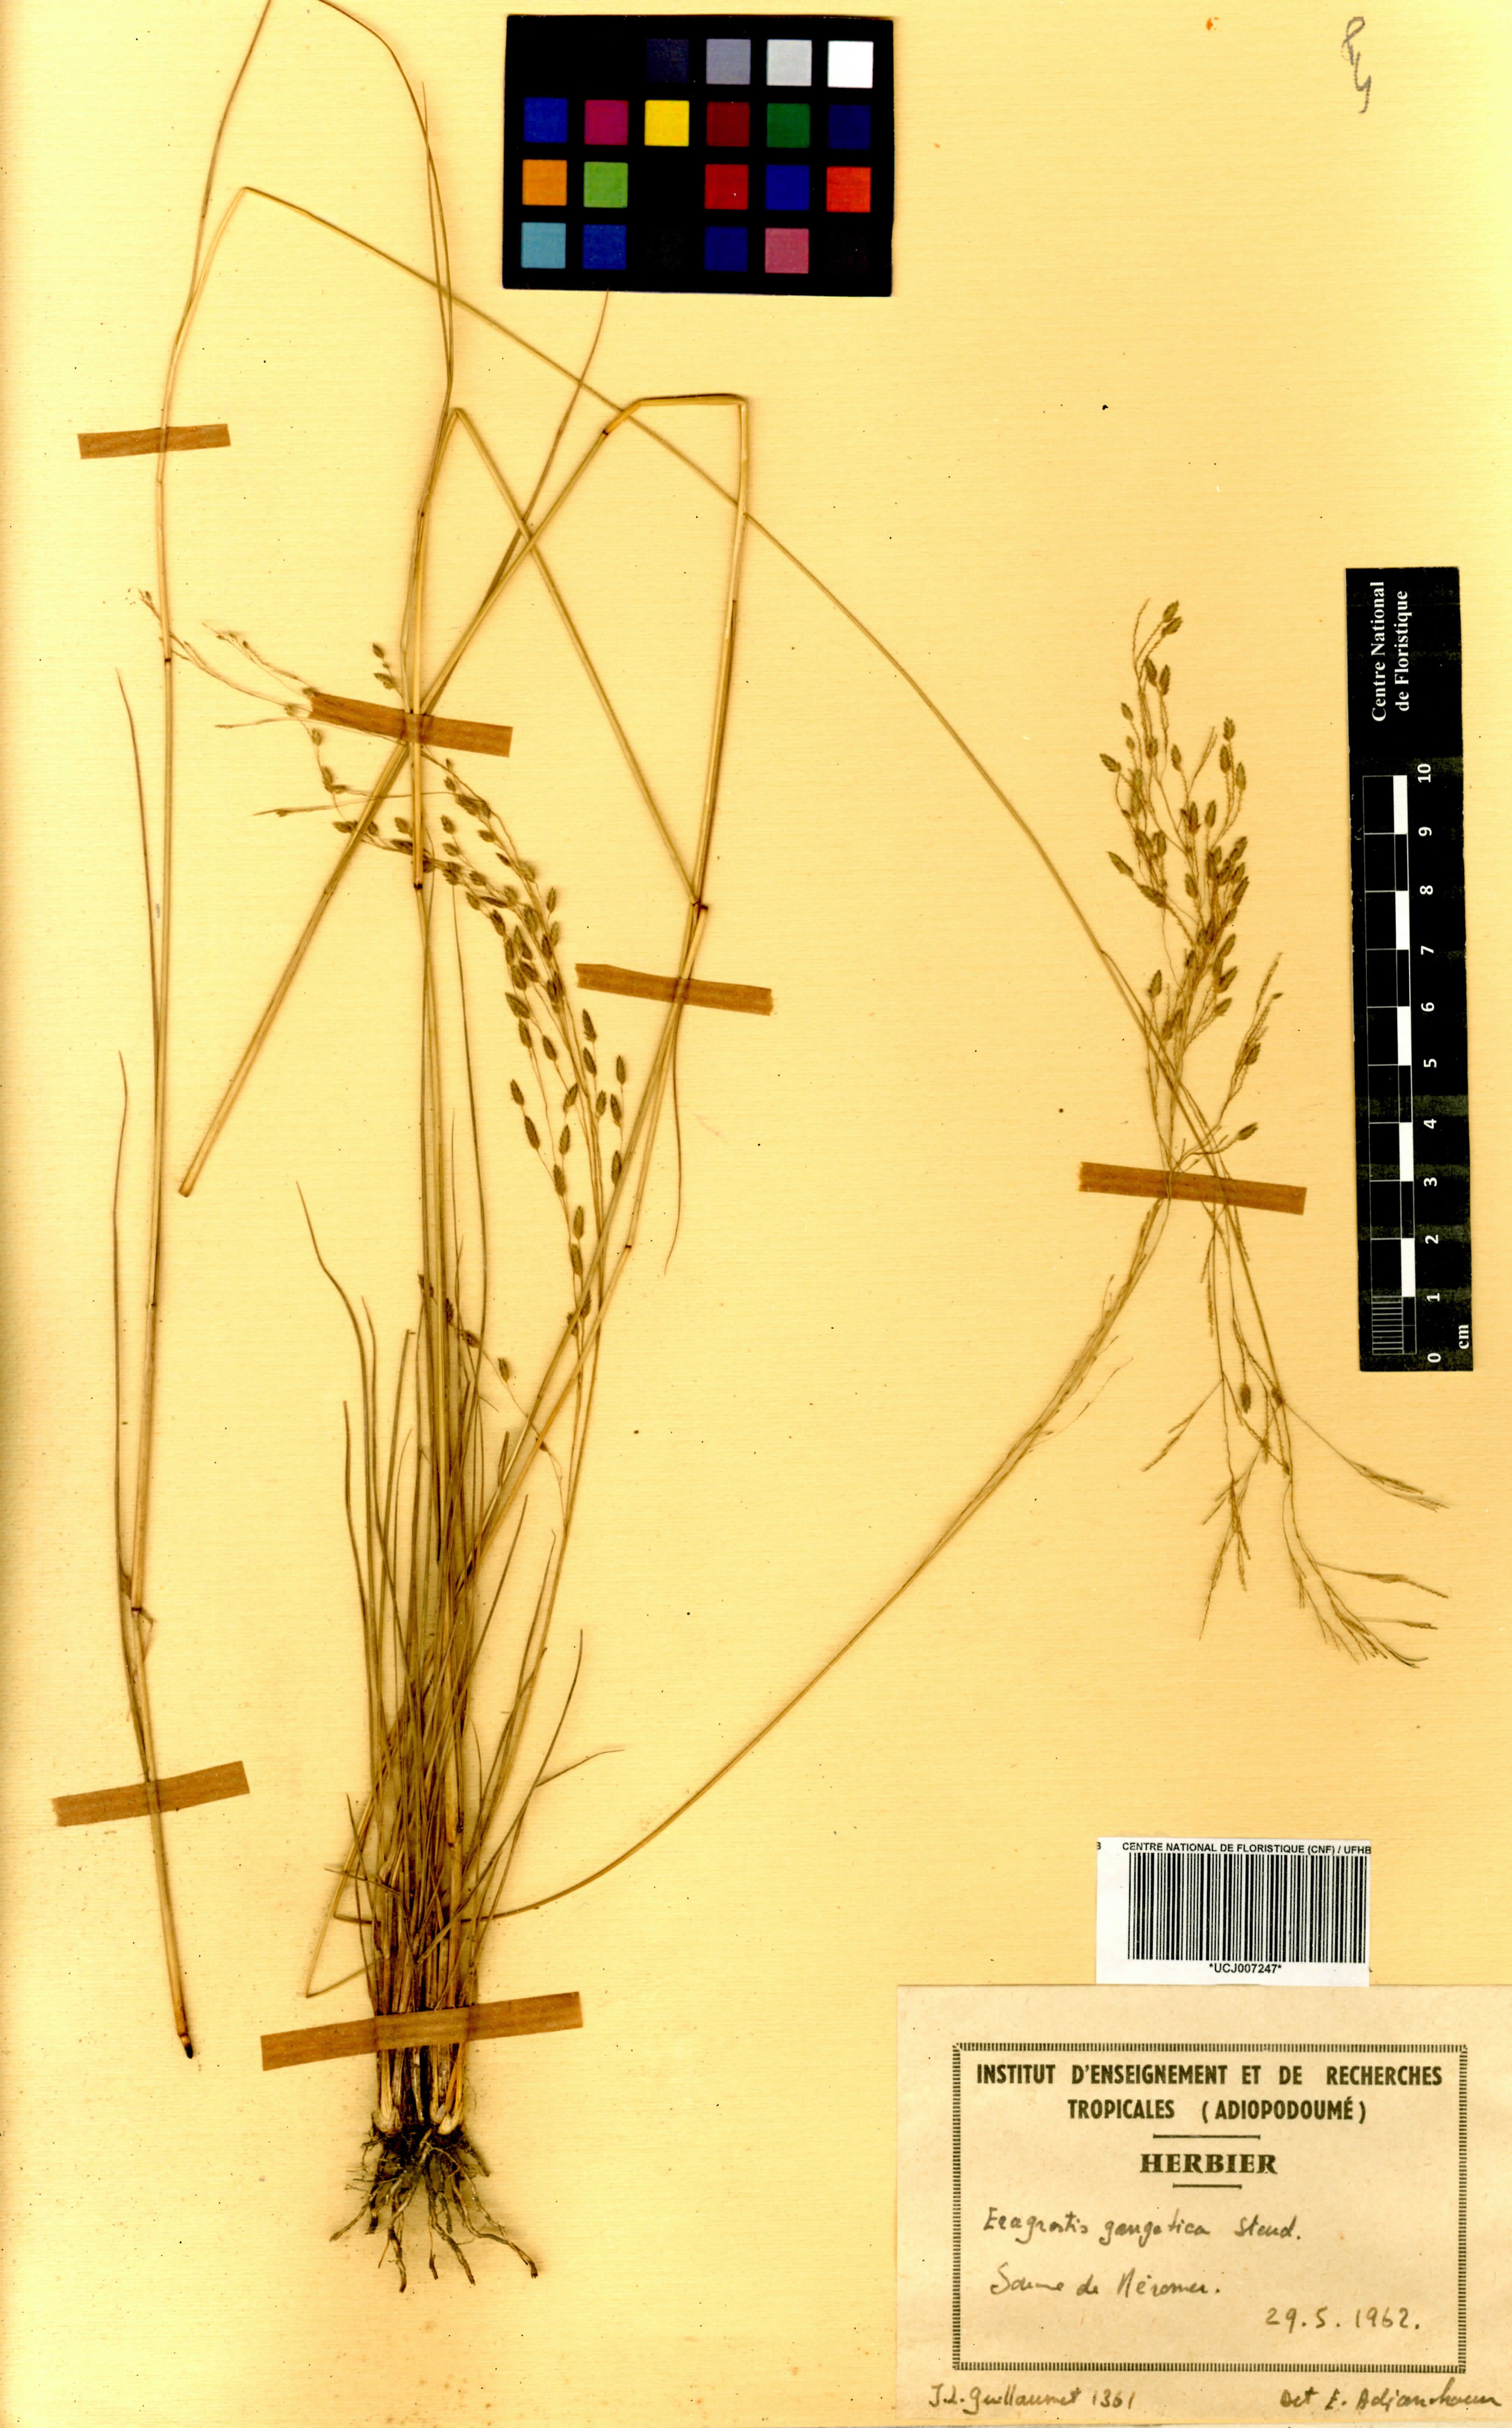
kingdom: Plantae
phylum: Tracheophyta
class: Liliopsida
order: Poales
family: Poaceae
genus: Eragrostis
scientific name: Eragrostis gangetica
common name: Slimflower lovegrass
